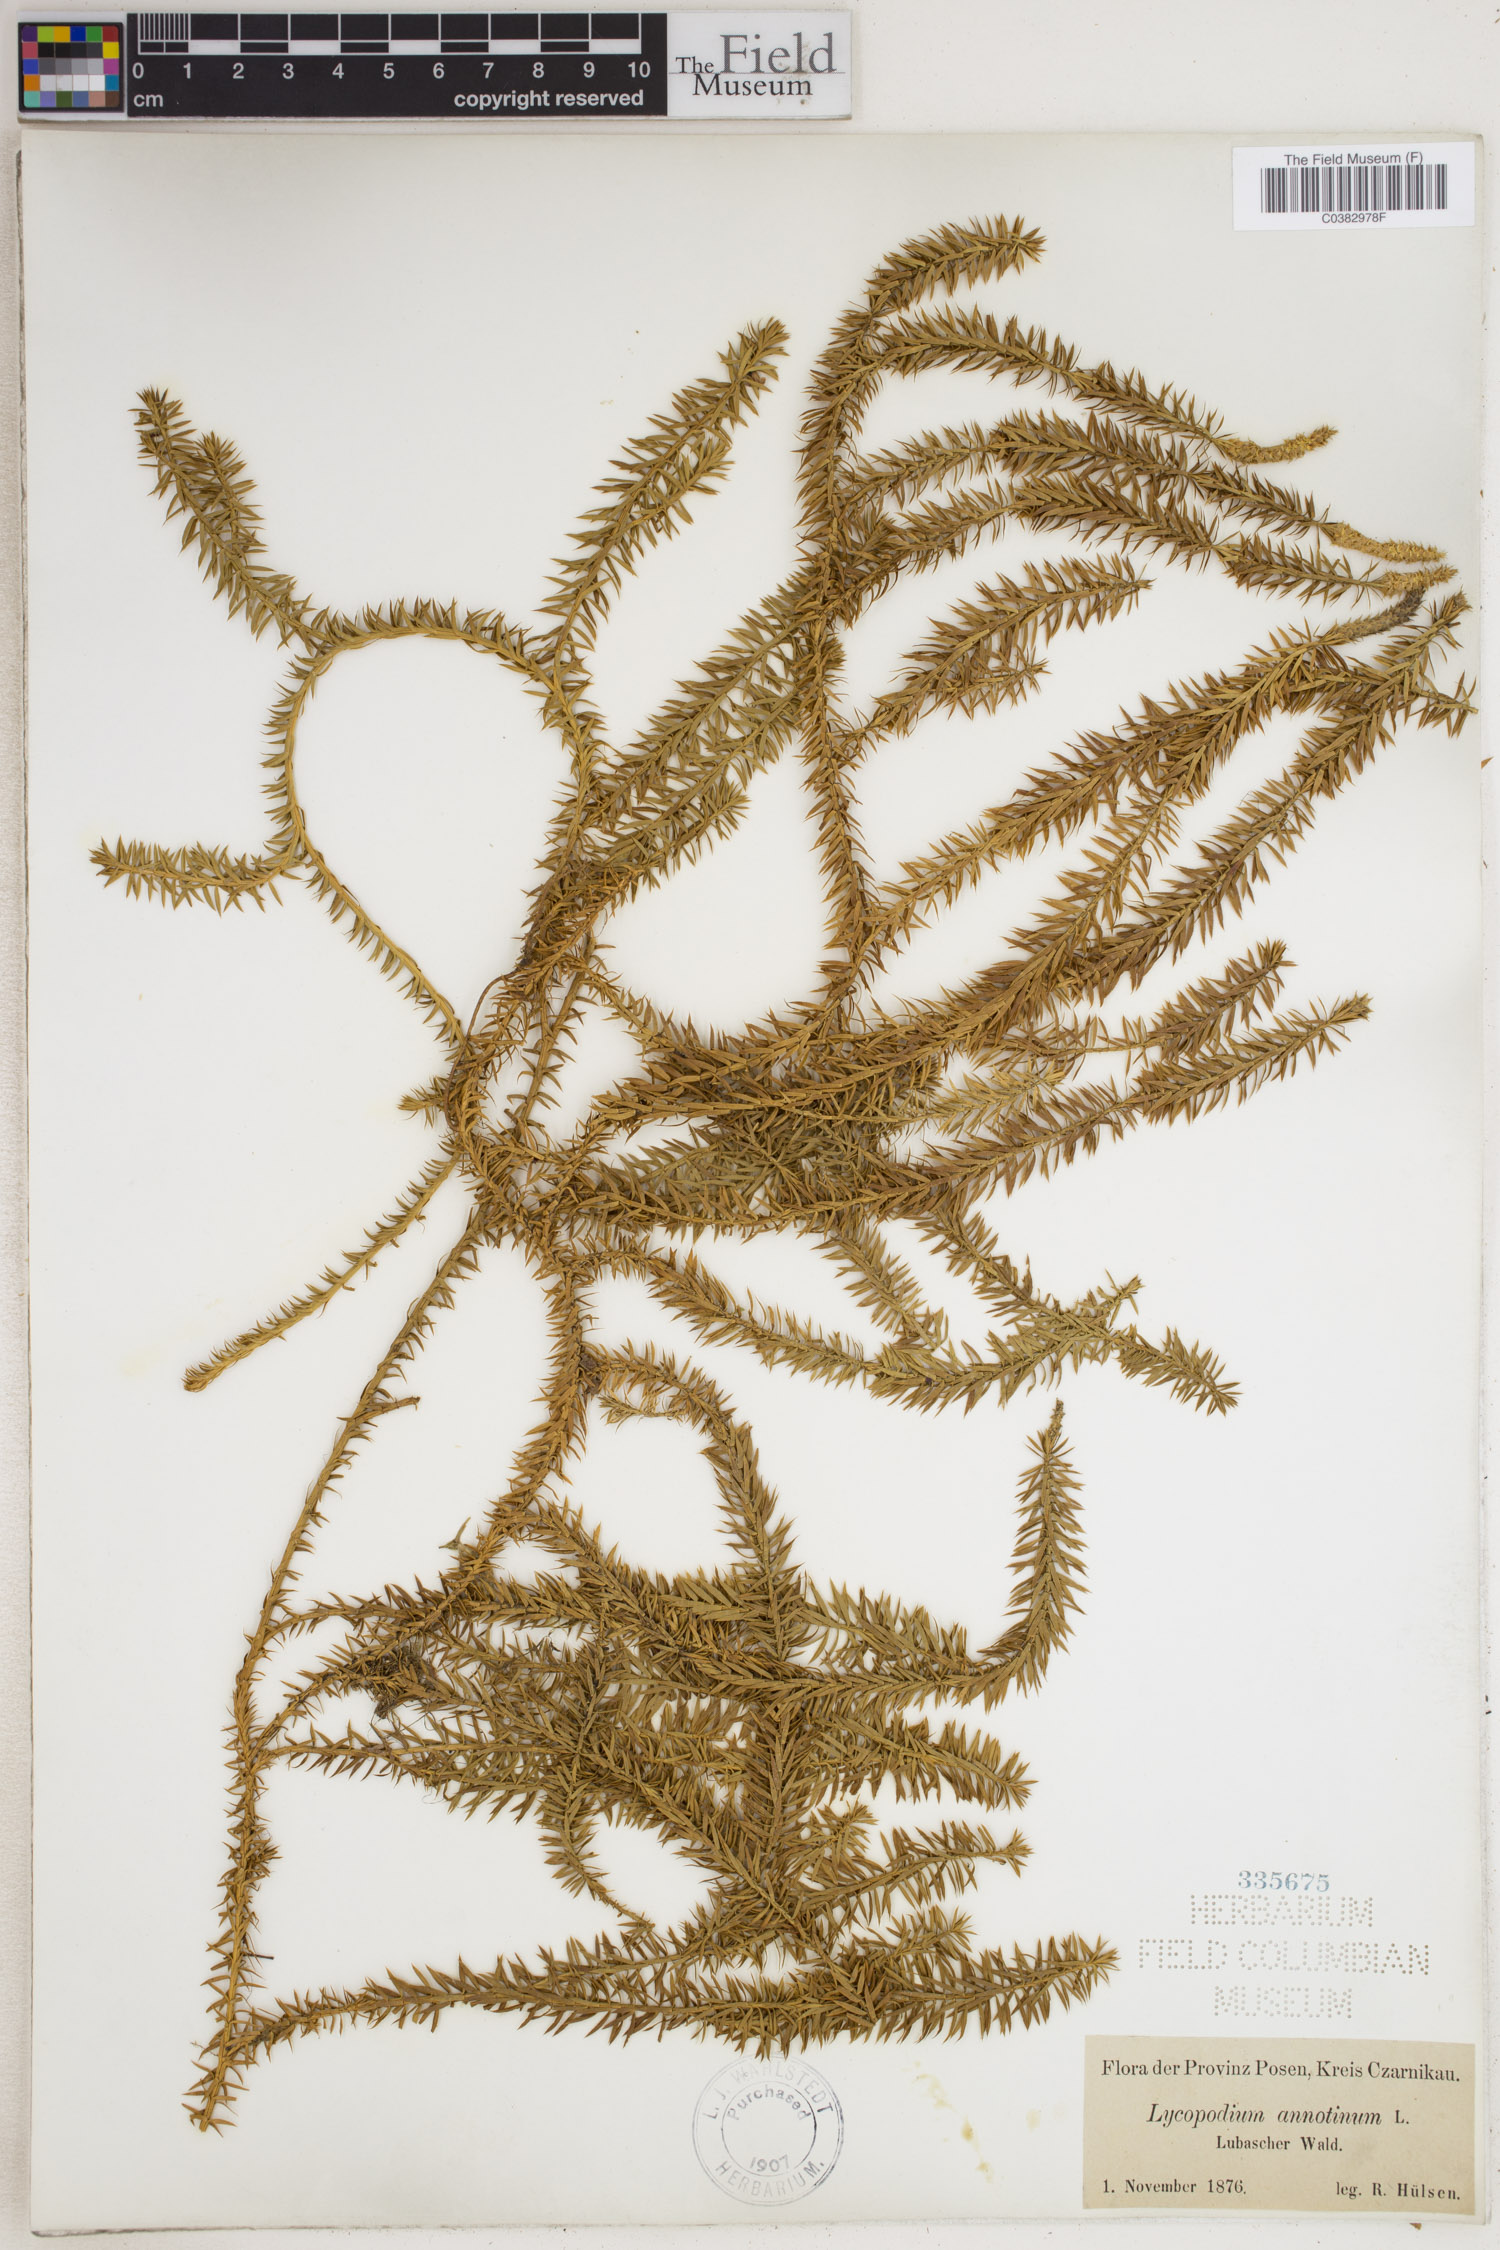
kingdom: Plantae
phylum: Tracheophyta
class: Lycopodiopsida
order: Lycopodiales
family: Lycopodiaceae
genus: Spinulum
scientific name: Spinulum annotinum
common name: Interrupted club-moss
